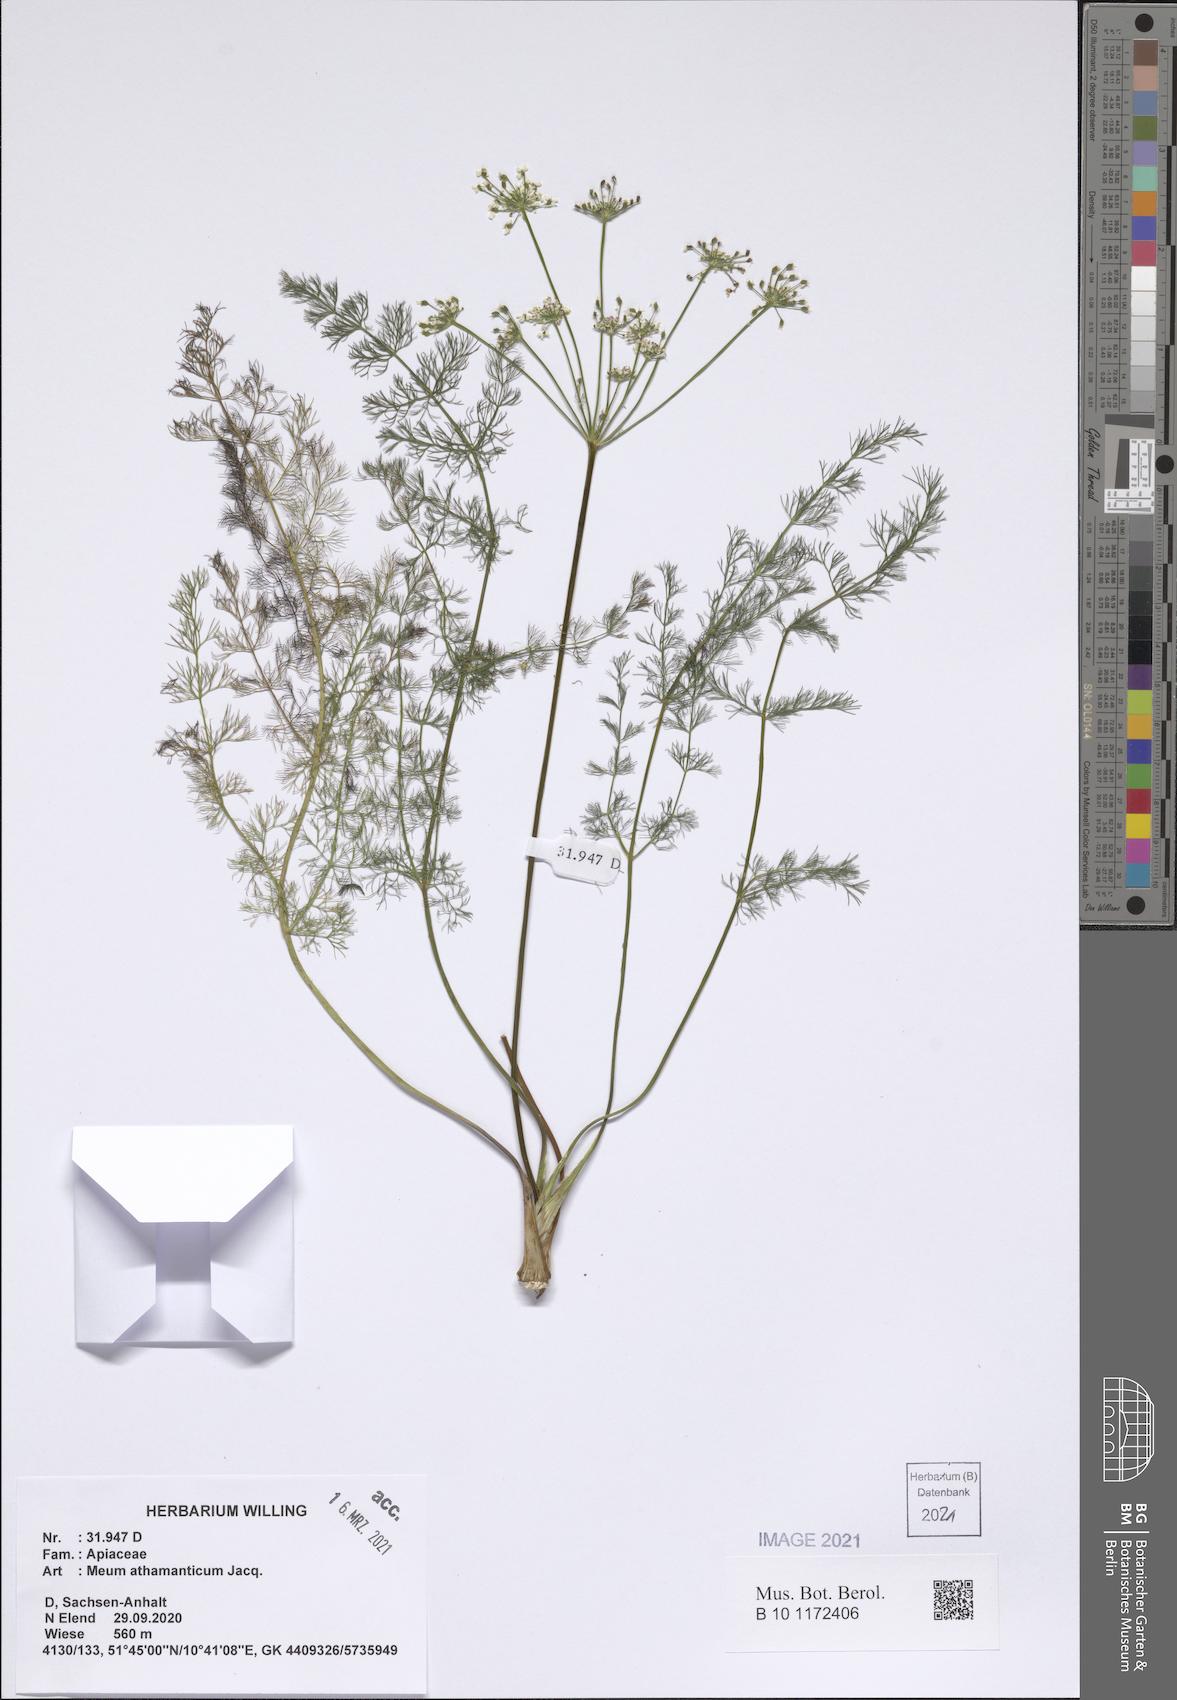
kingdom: Plantae
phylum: Tracheophyta
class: Magnoliopsida
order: Apiales
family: Apiaceae
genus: Meum
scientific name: Meum athamanticum
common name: Spignel
